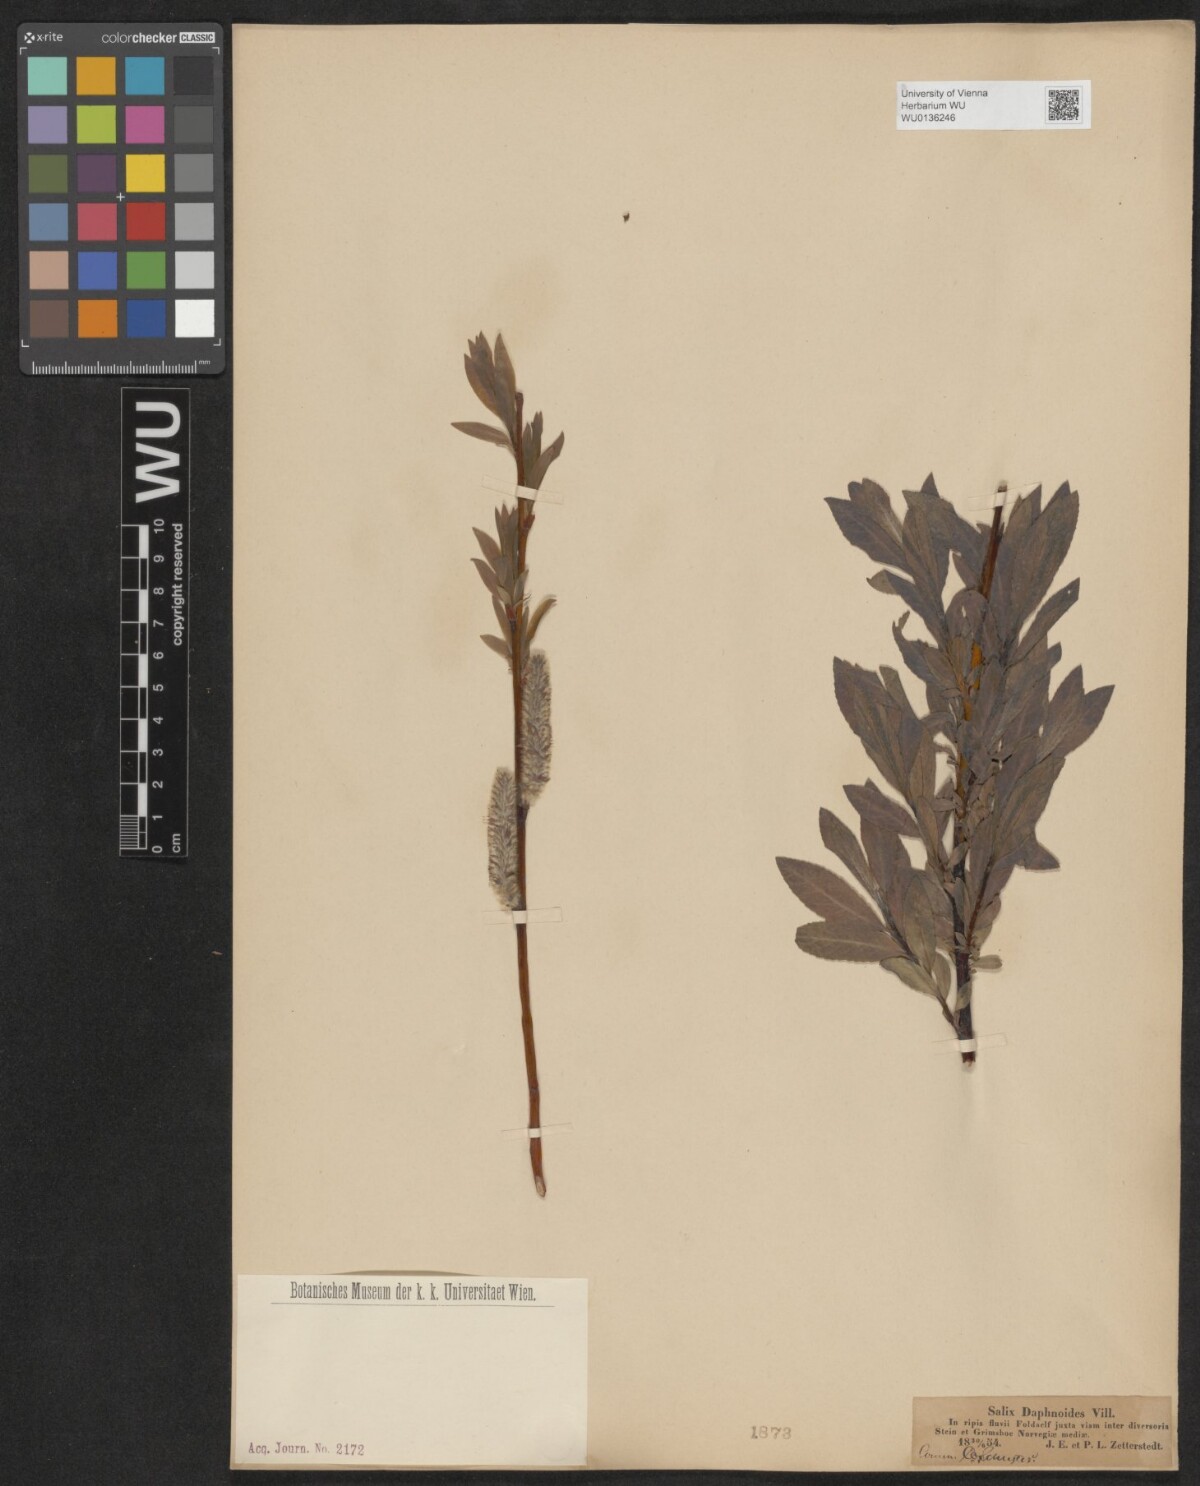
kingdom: Plantae
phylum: Tracheophyta
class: Magnoliopsida
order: Malpighiales
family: Salicaceae
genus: Salix
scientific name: Salix daphnoides
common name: European violet-willow
